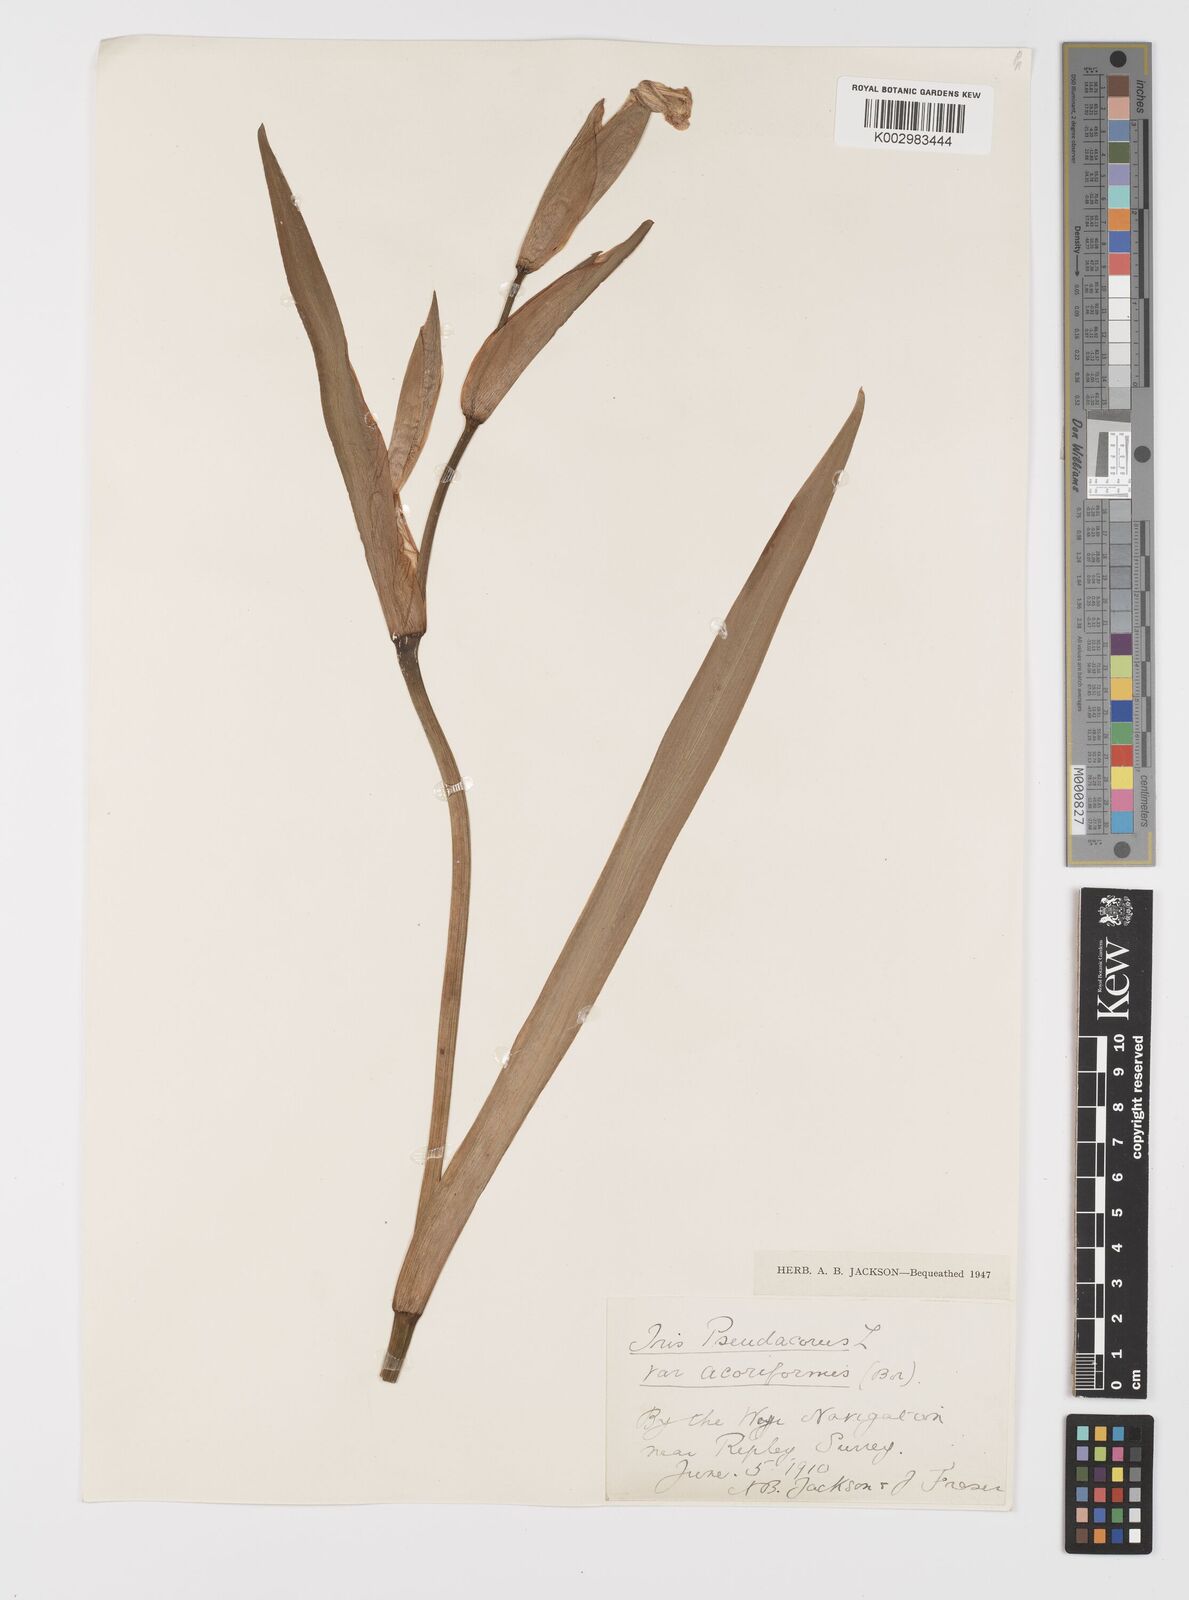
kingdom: Plantae
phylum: Tracheophyta
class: Liliopsida
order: Asparagales
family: Iridaceae
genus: Iris
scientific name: Iris pseudacorus
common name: Yellow flag
